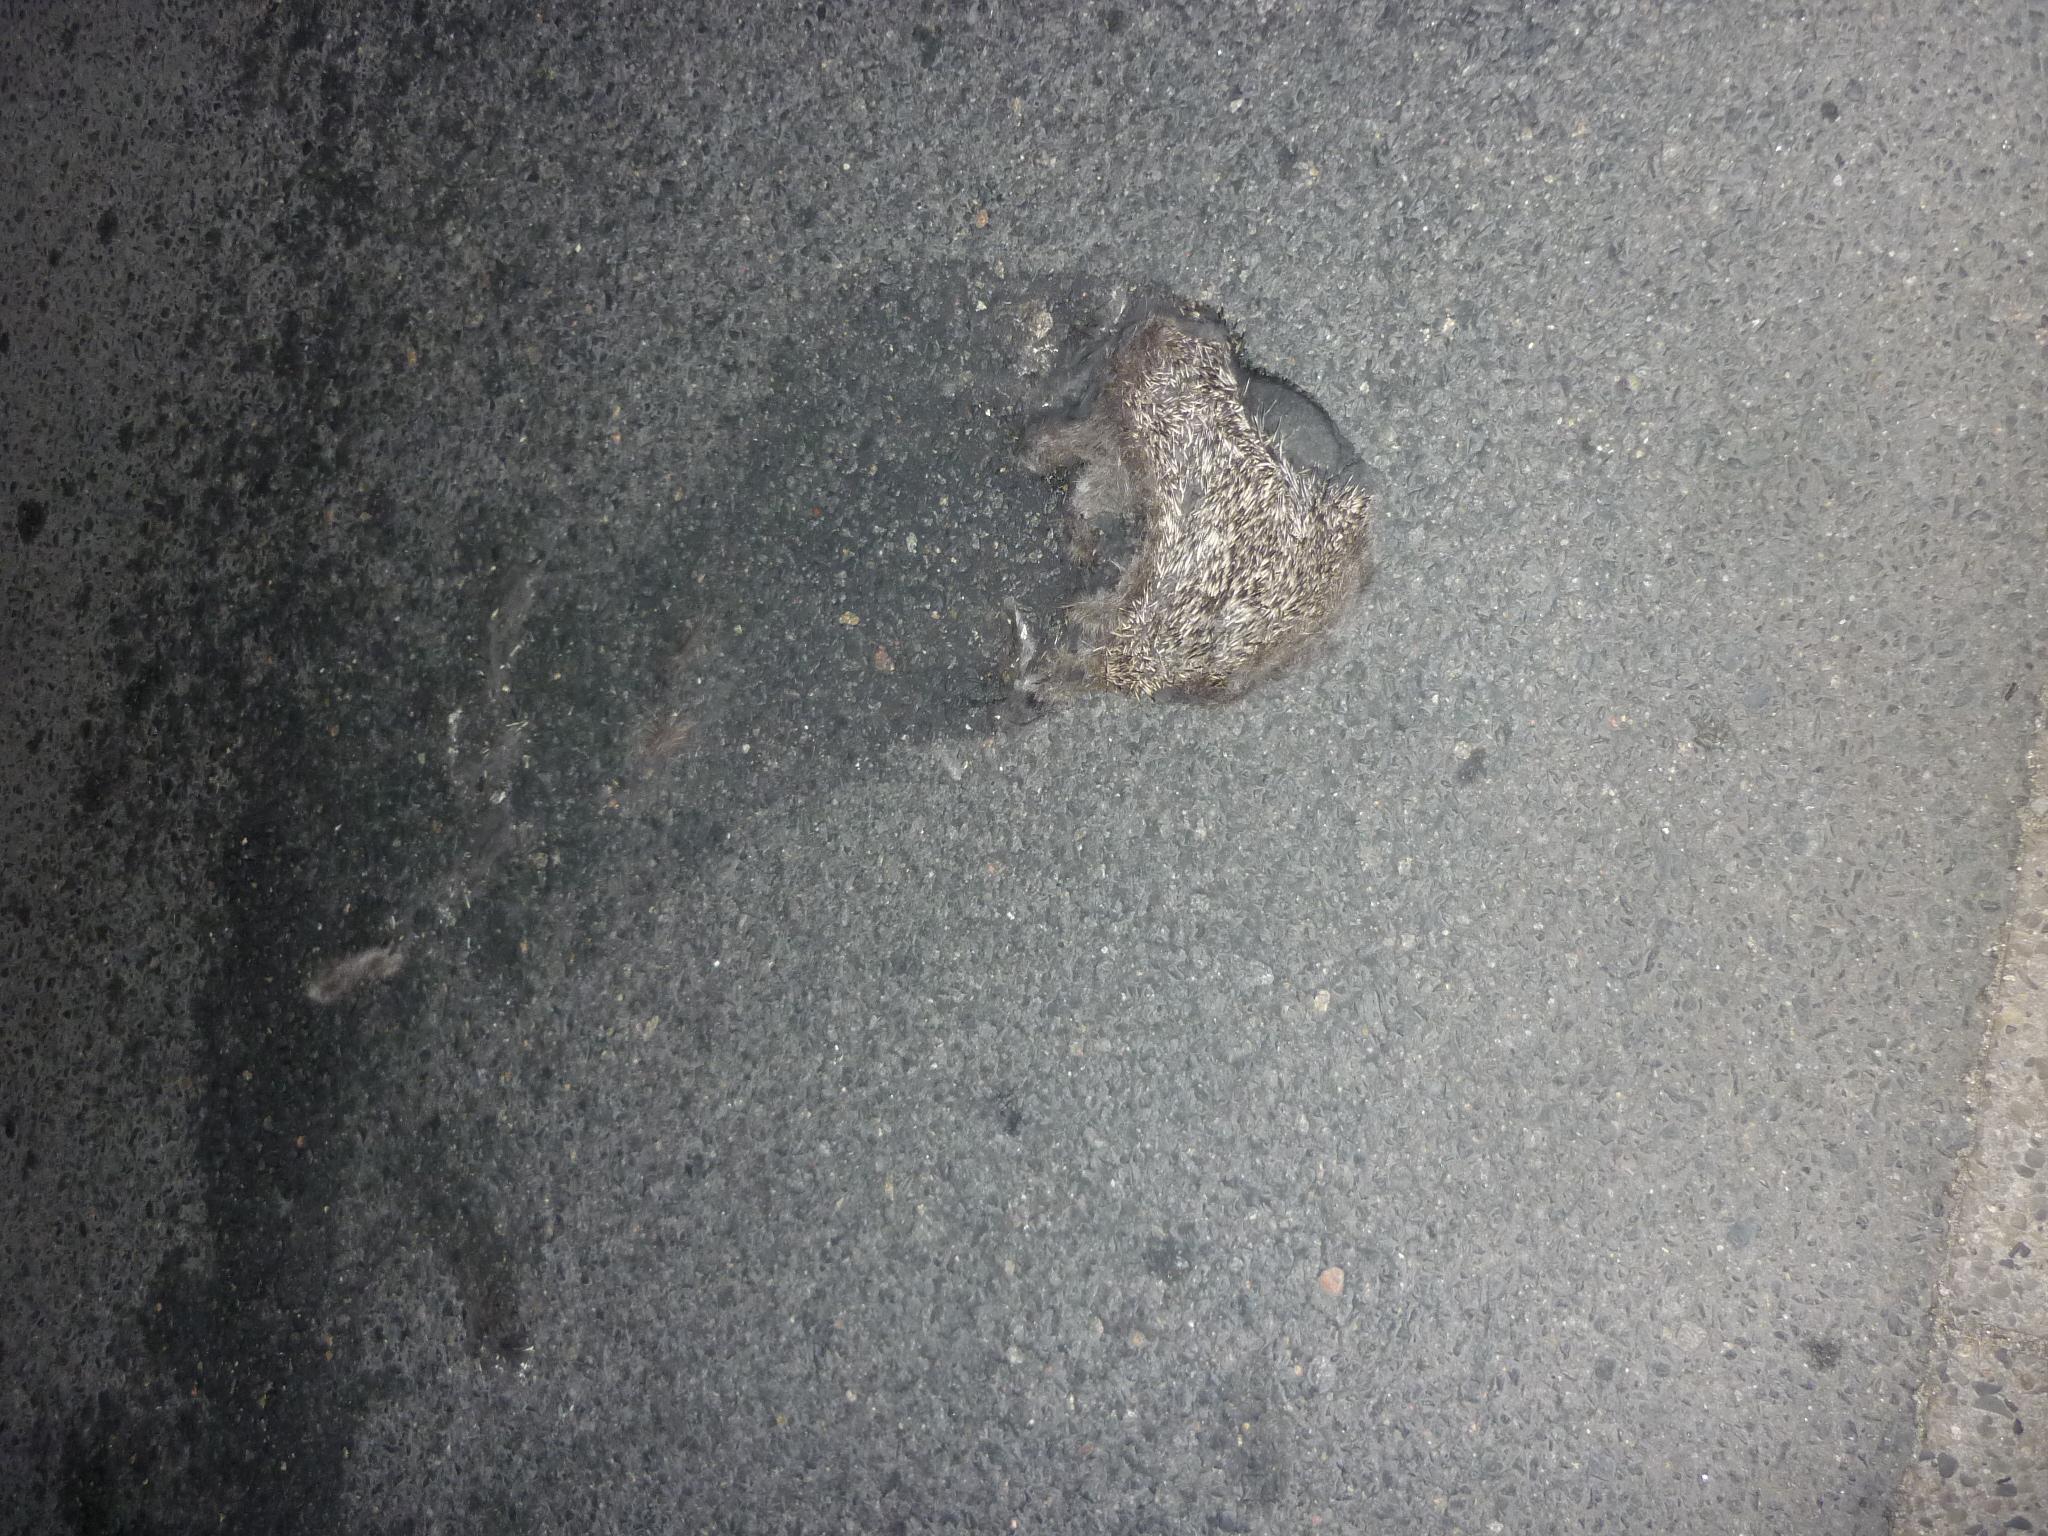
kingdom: Animalia
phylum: Chordata
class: Mammalia
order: Erinaceomorpha
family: Erinaceidae
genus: Erinaceus
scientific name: Erinaceus
